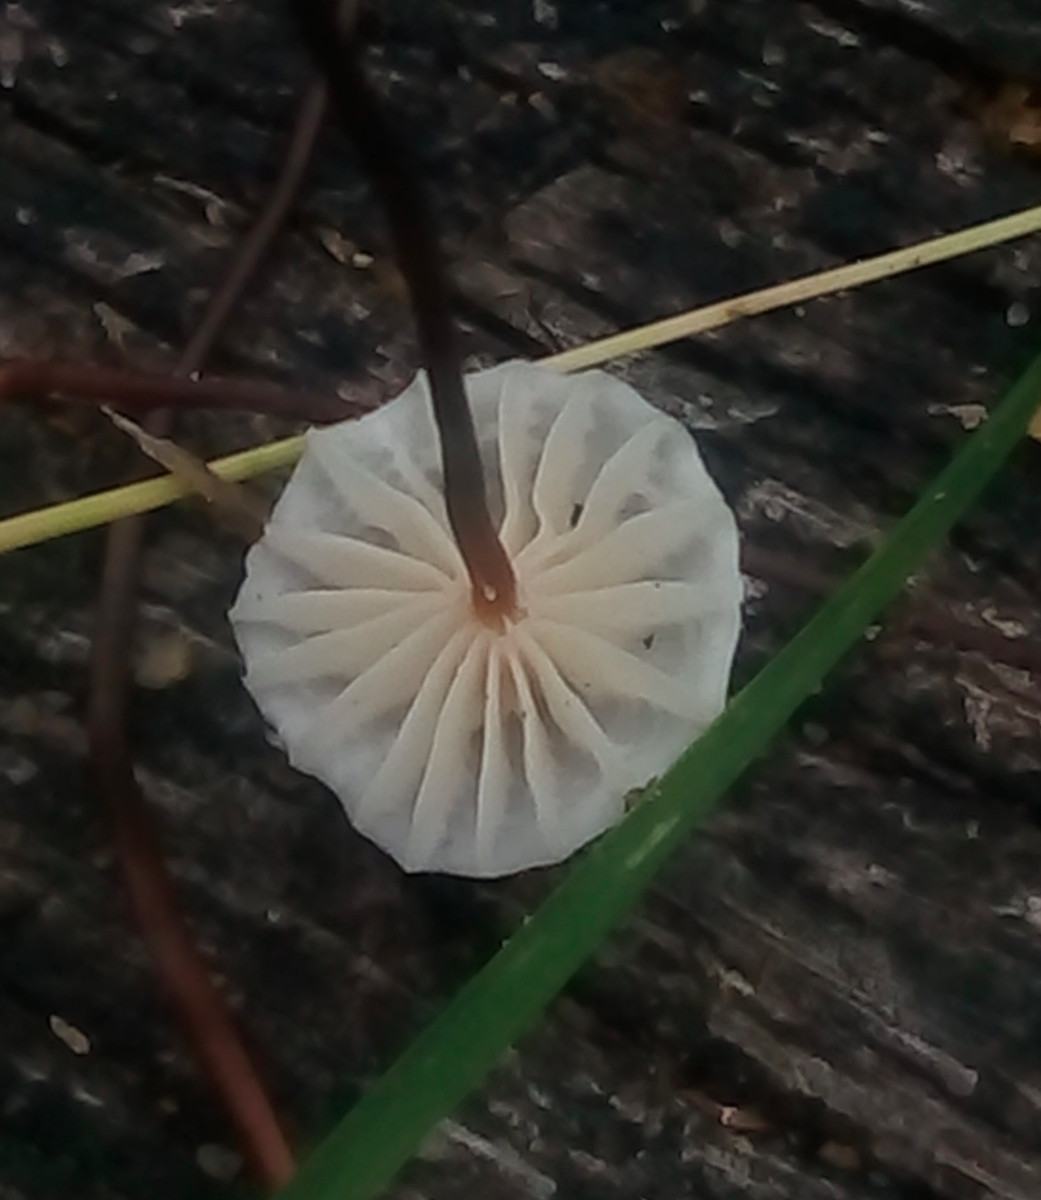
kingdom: Fungi
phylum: Basidiomycota
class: Agaricomycetes
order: Agaricales
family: Omphalotaceae
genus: Mycetinis
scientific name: Mycetinis scorodonius
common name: lille løghat
